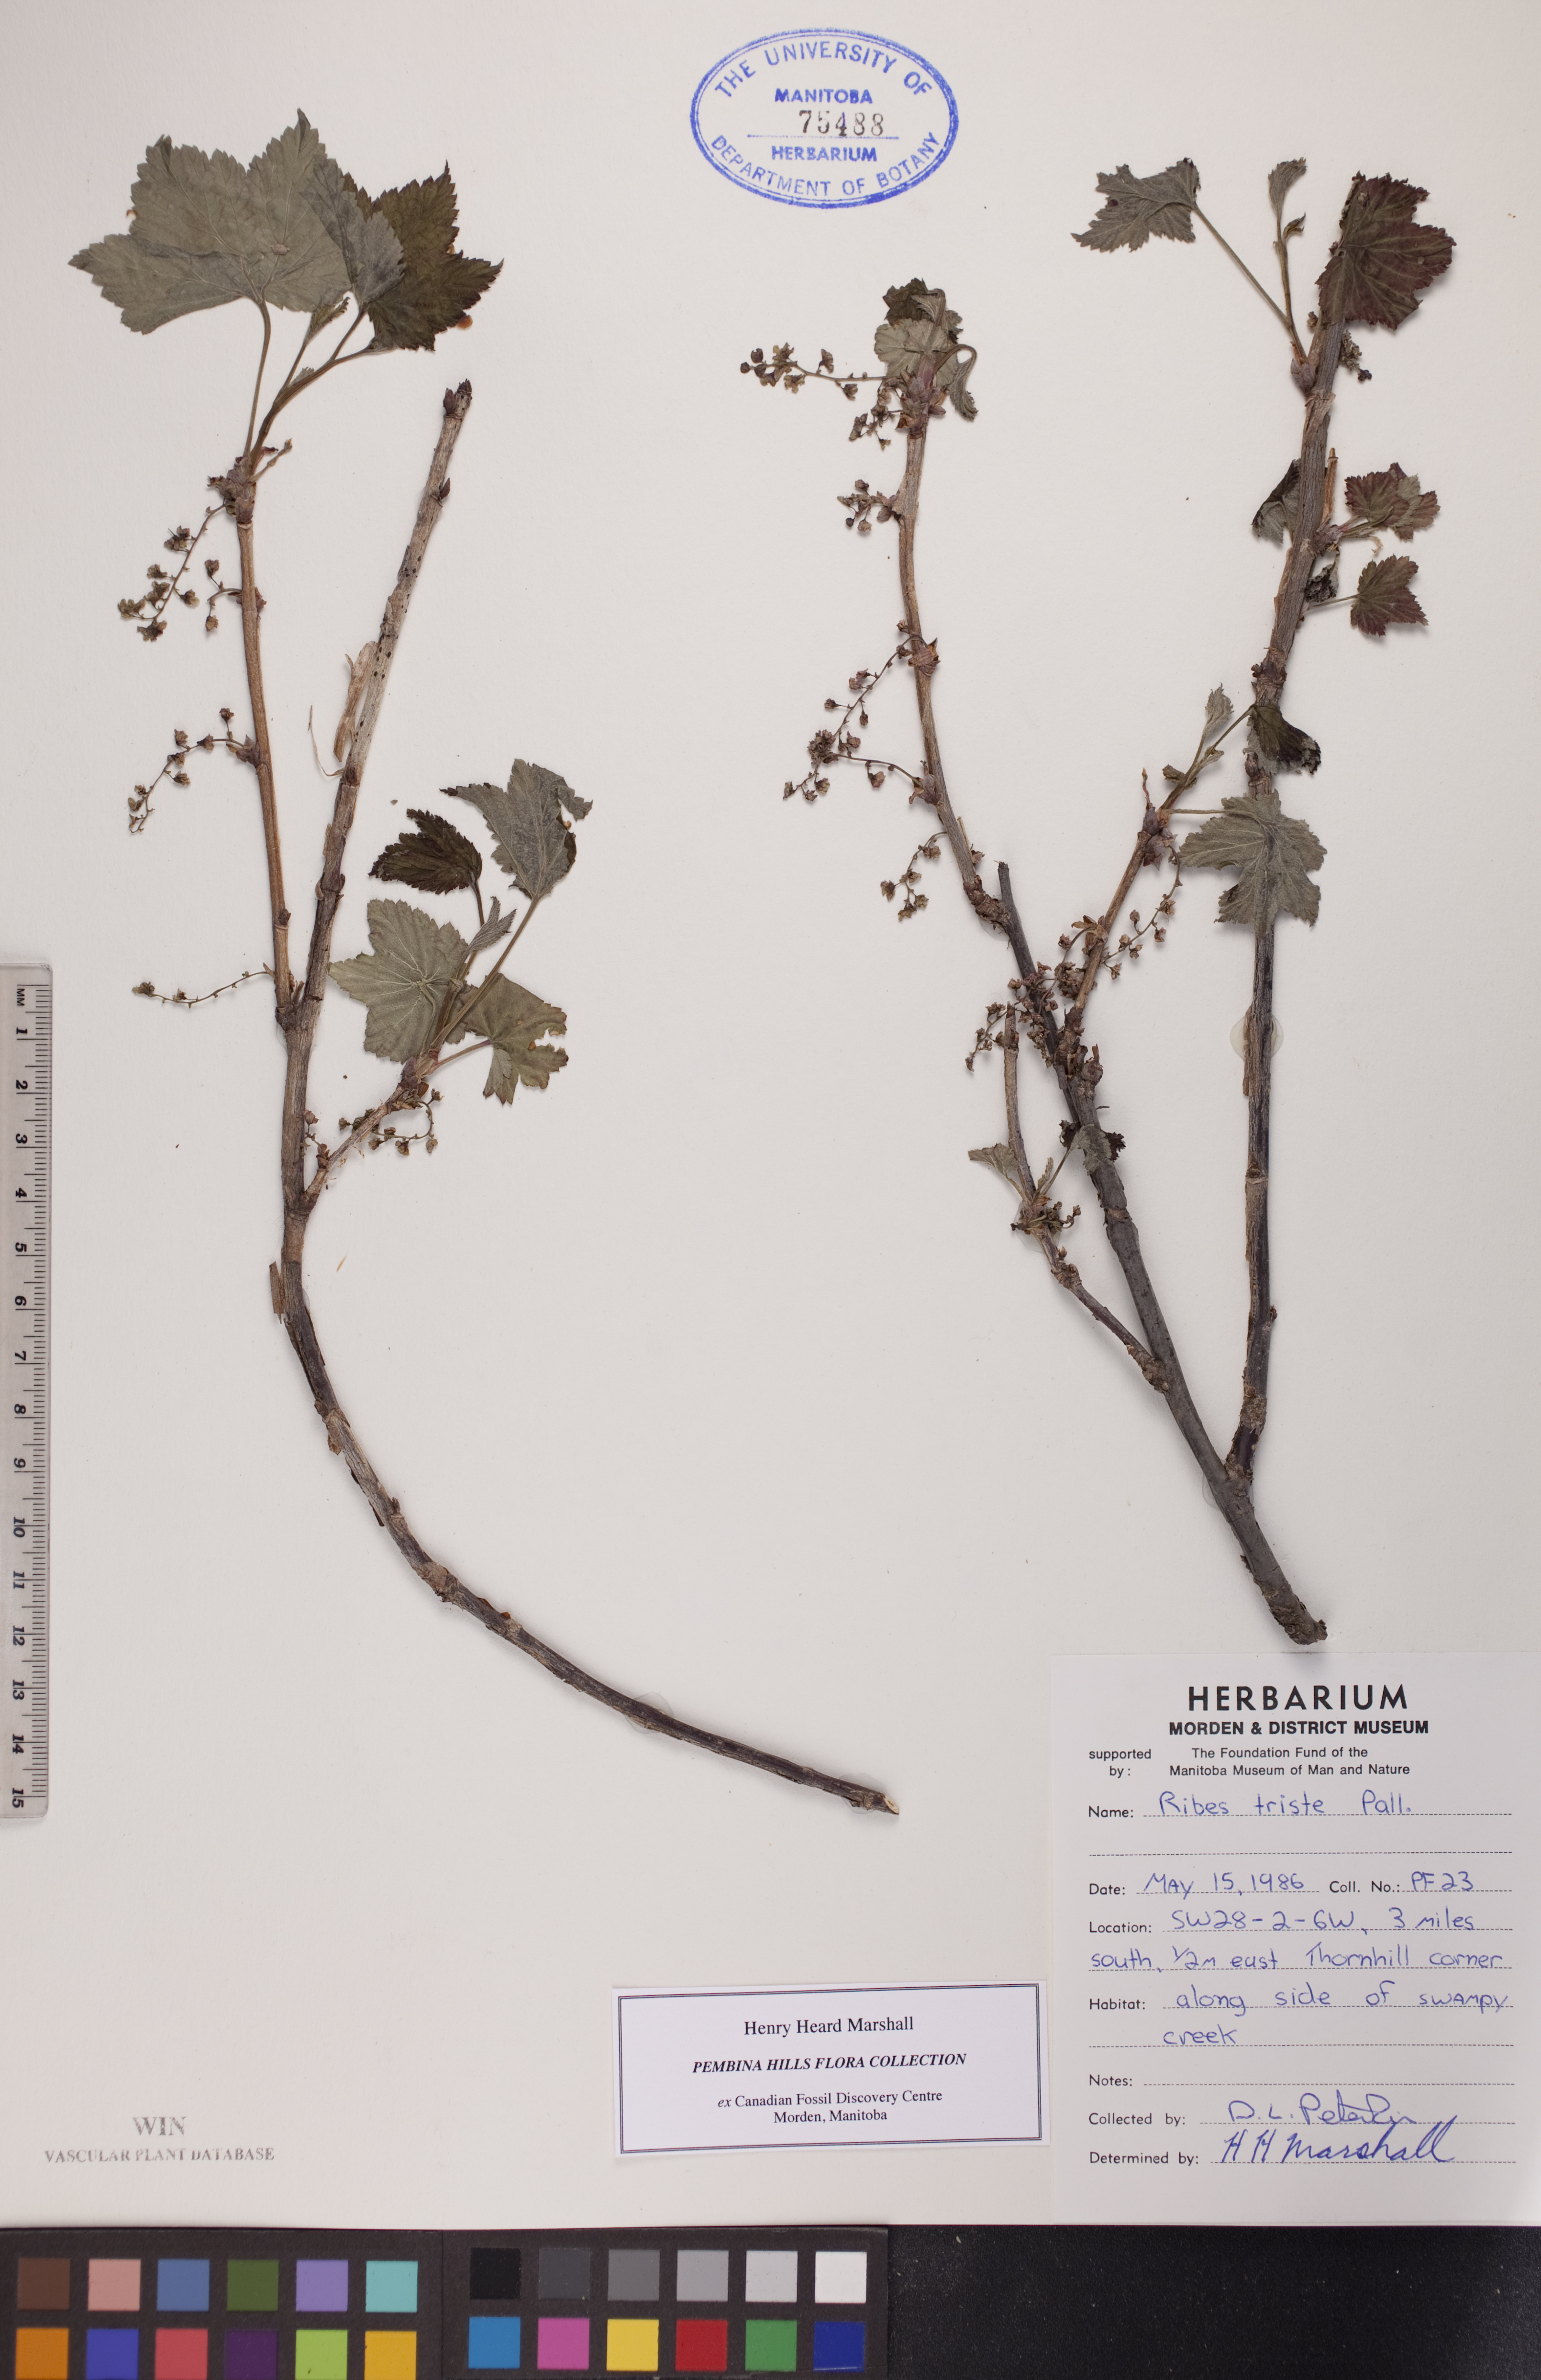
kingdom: Plantae
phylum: Tracheophyta
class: Magnoliopsida
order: Saxifragales
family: Grossulariaceae
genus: Ribes
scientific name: Ribes triste
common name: Swamp red currant
